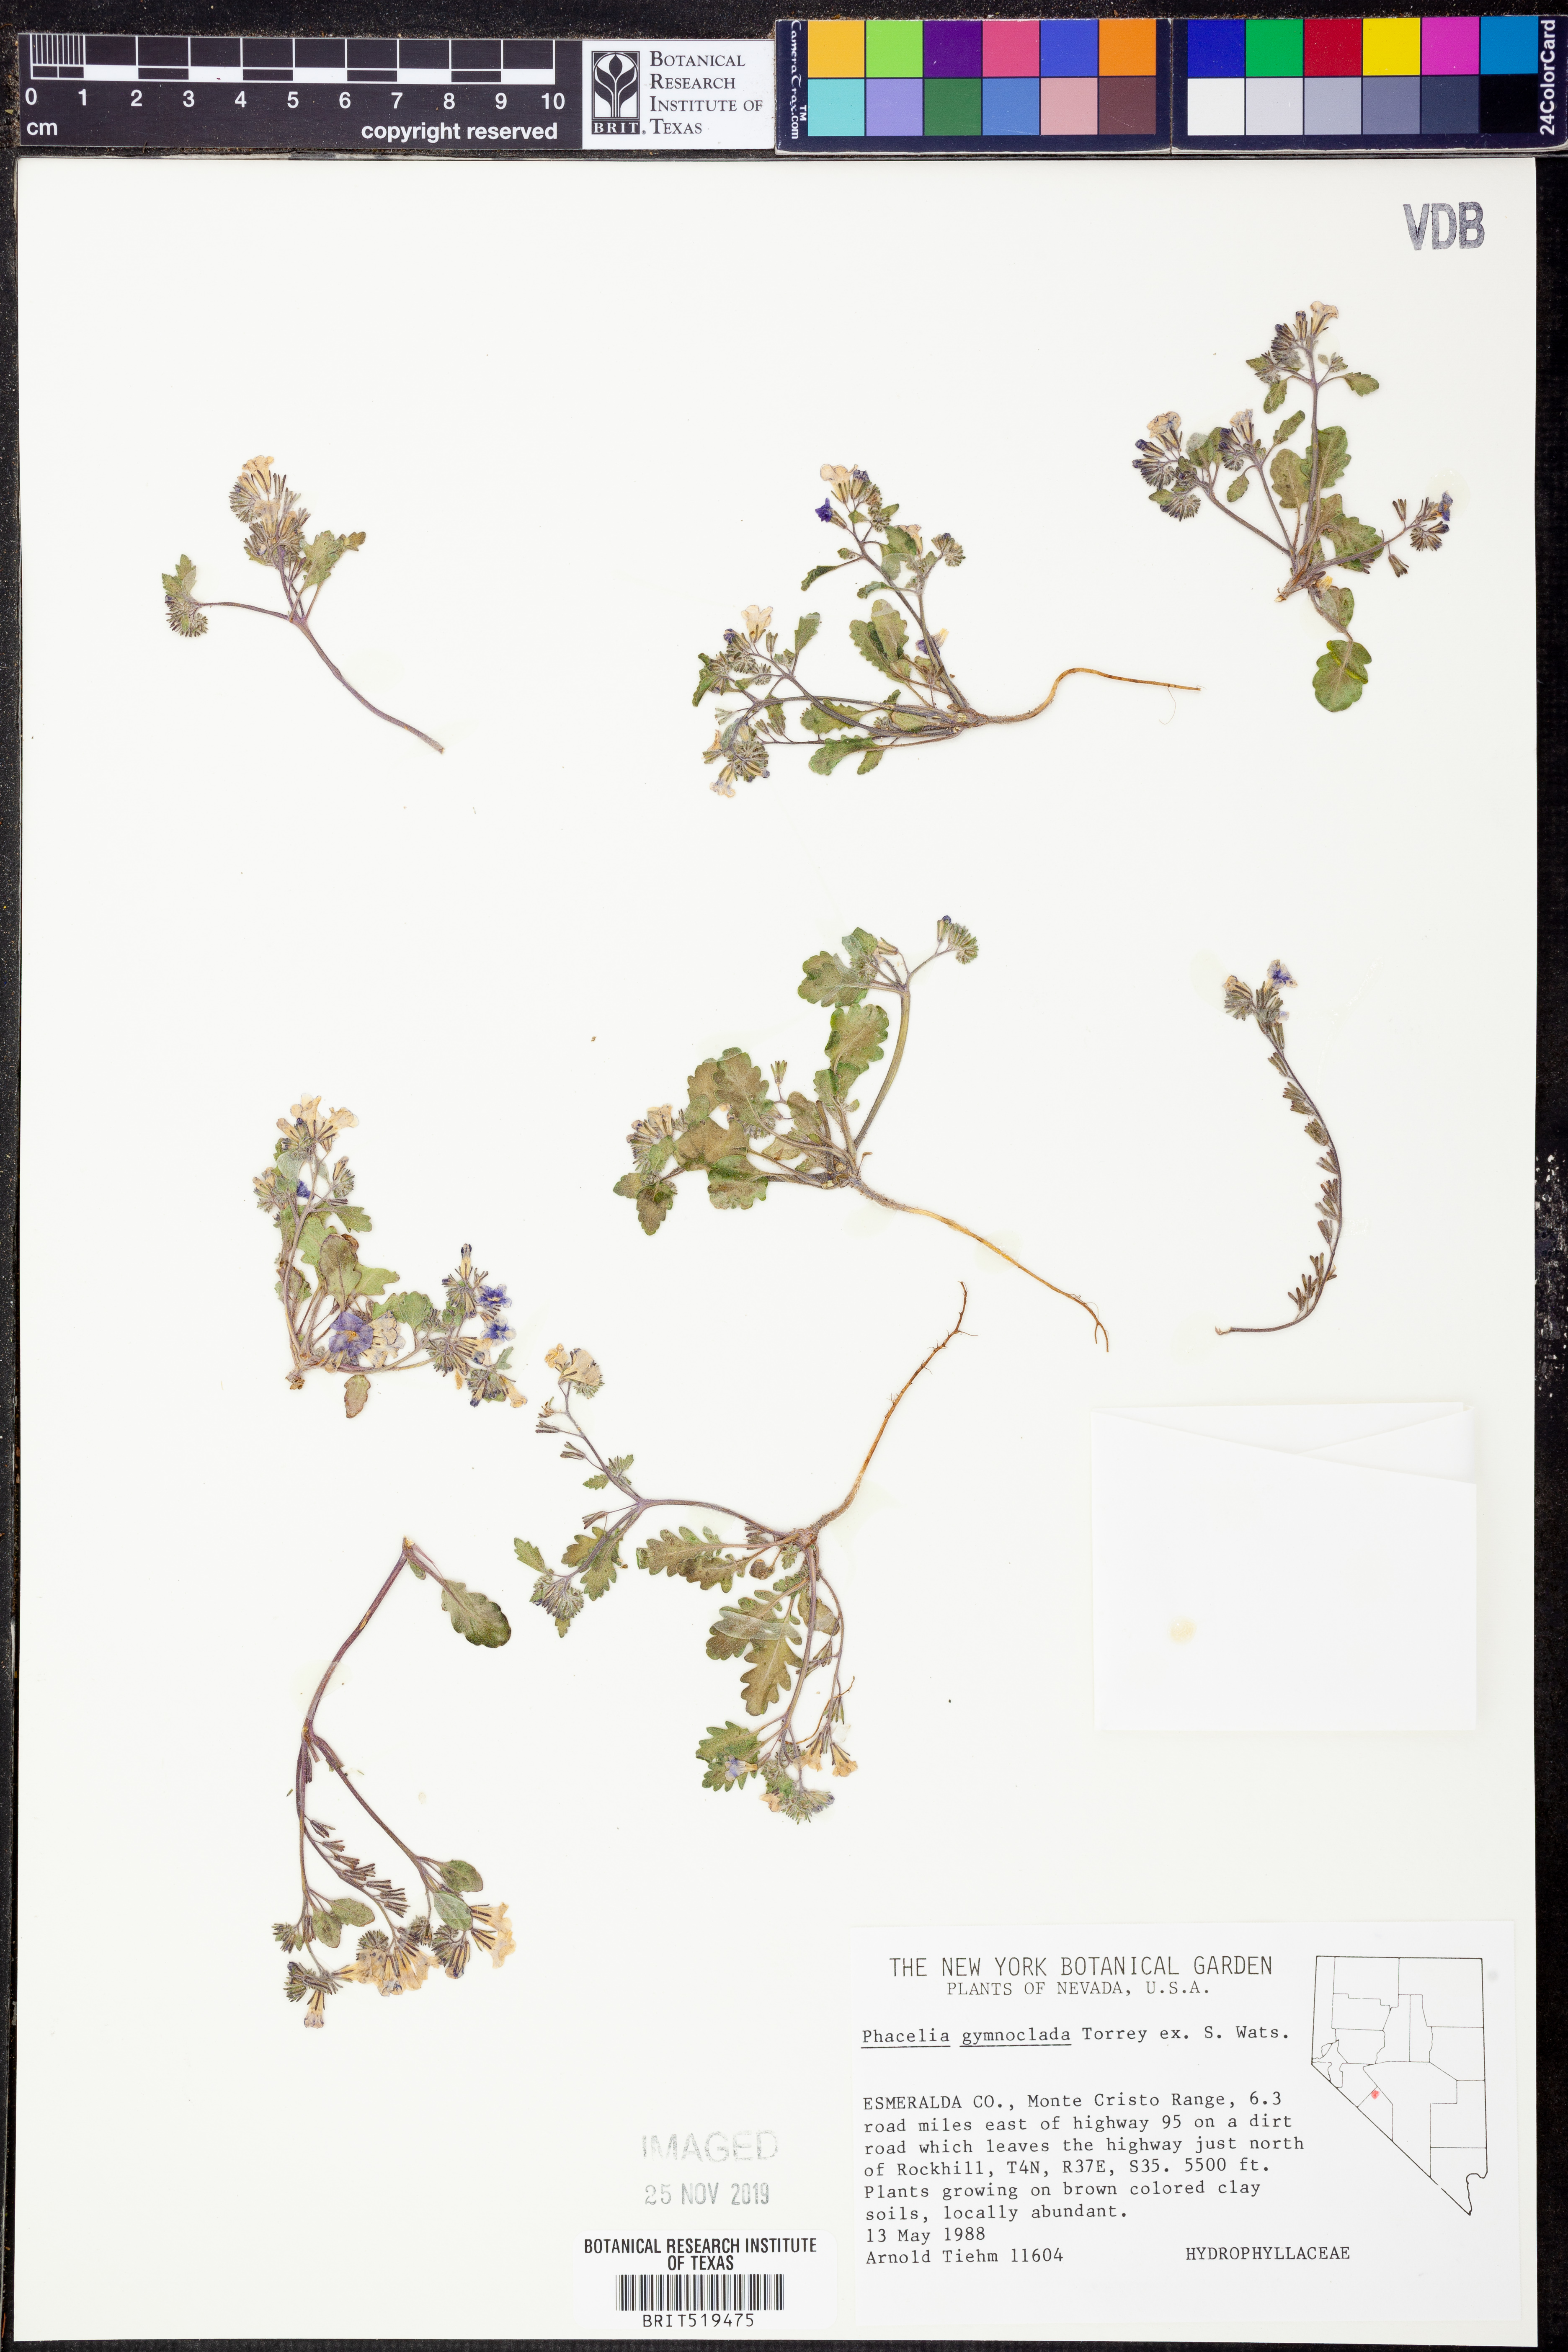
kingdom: Plantae
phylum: Tracheophyta
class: Magnoliopsida
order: Boraginales
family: Hydrophyllaceae
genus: Phacelia
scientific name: Phacelia gymnoclada
